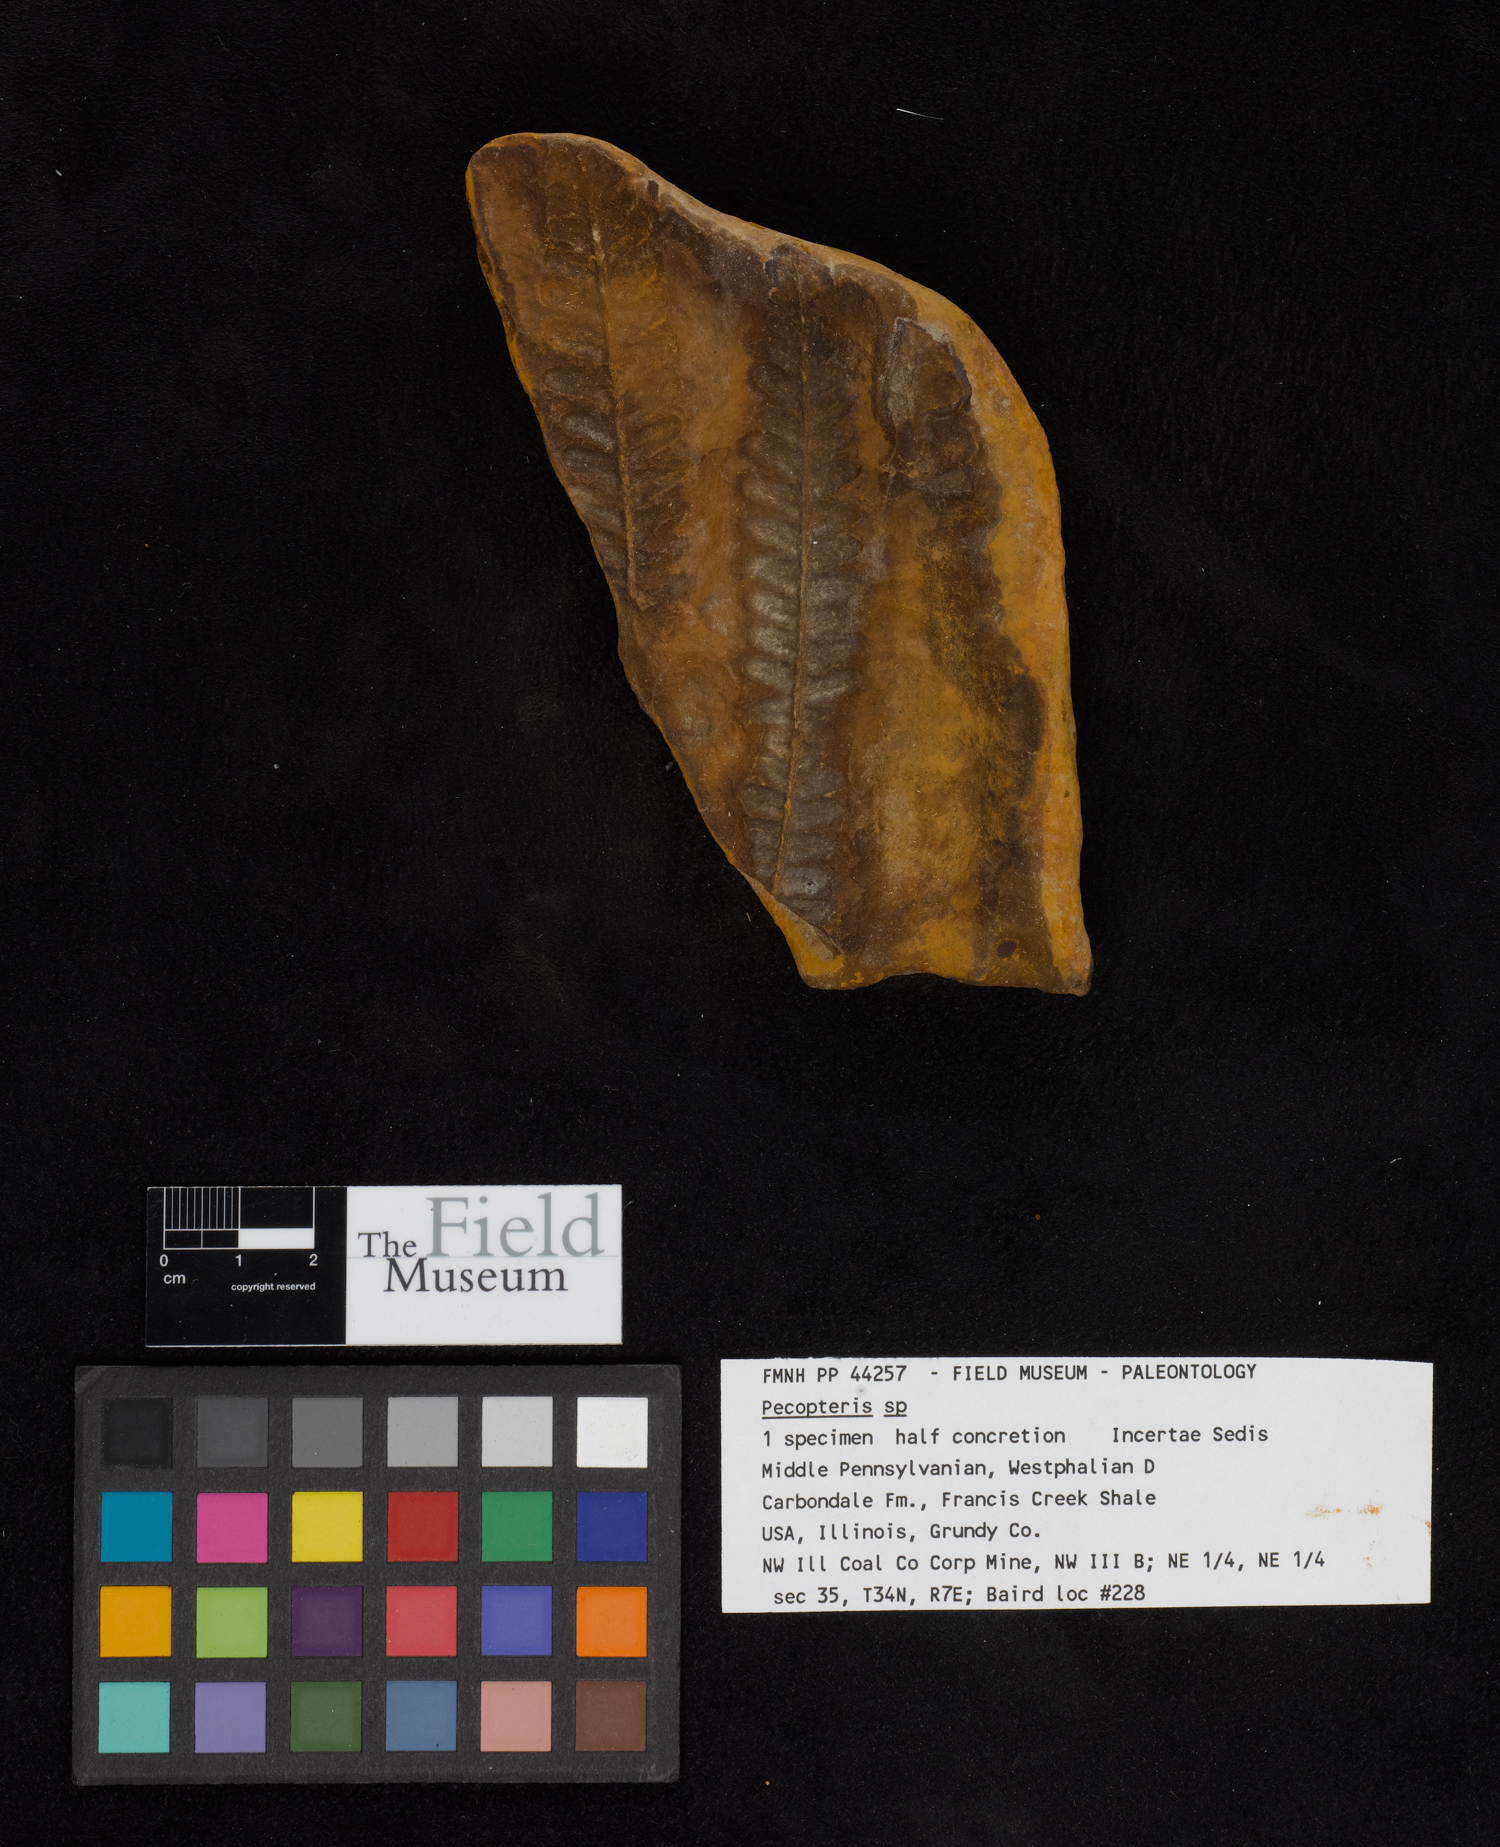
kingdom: Plantae
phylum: Tracheophyta
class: Polypodiopsida
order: Marattiales
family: Asterothecaceae
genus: Pecopteris
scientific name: Pecopteris
